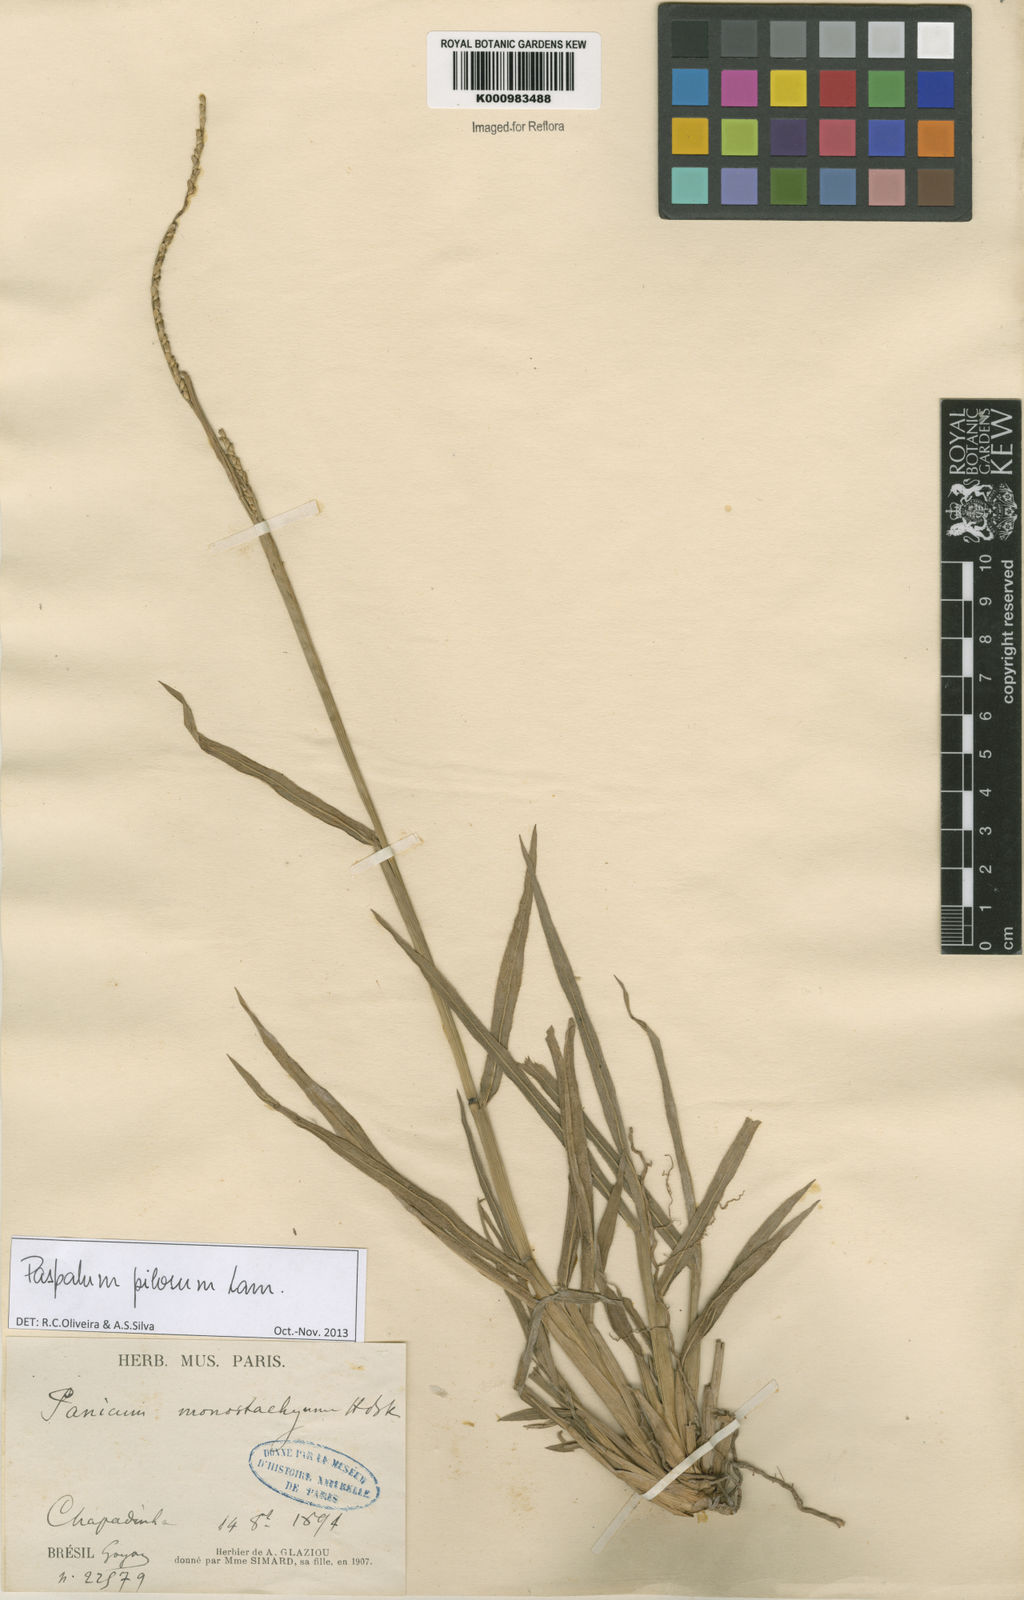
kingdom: Plantae
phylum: Tracheophyta
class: Liliopsida
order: Poales
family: Poaceae
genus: Paspalum
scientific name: Paspalum pilosum
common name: Crowngrass
